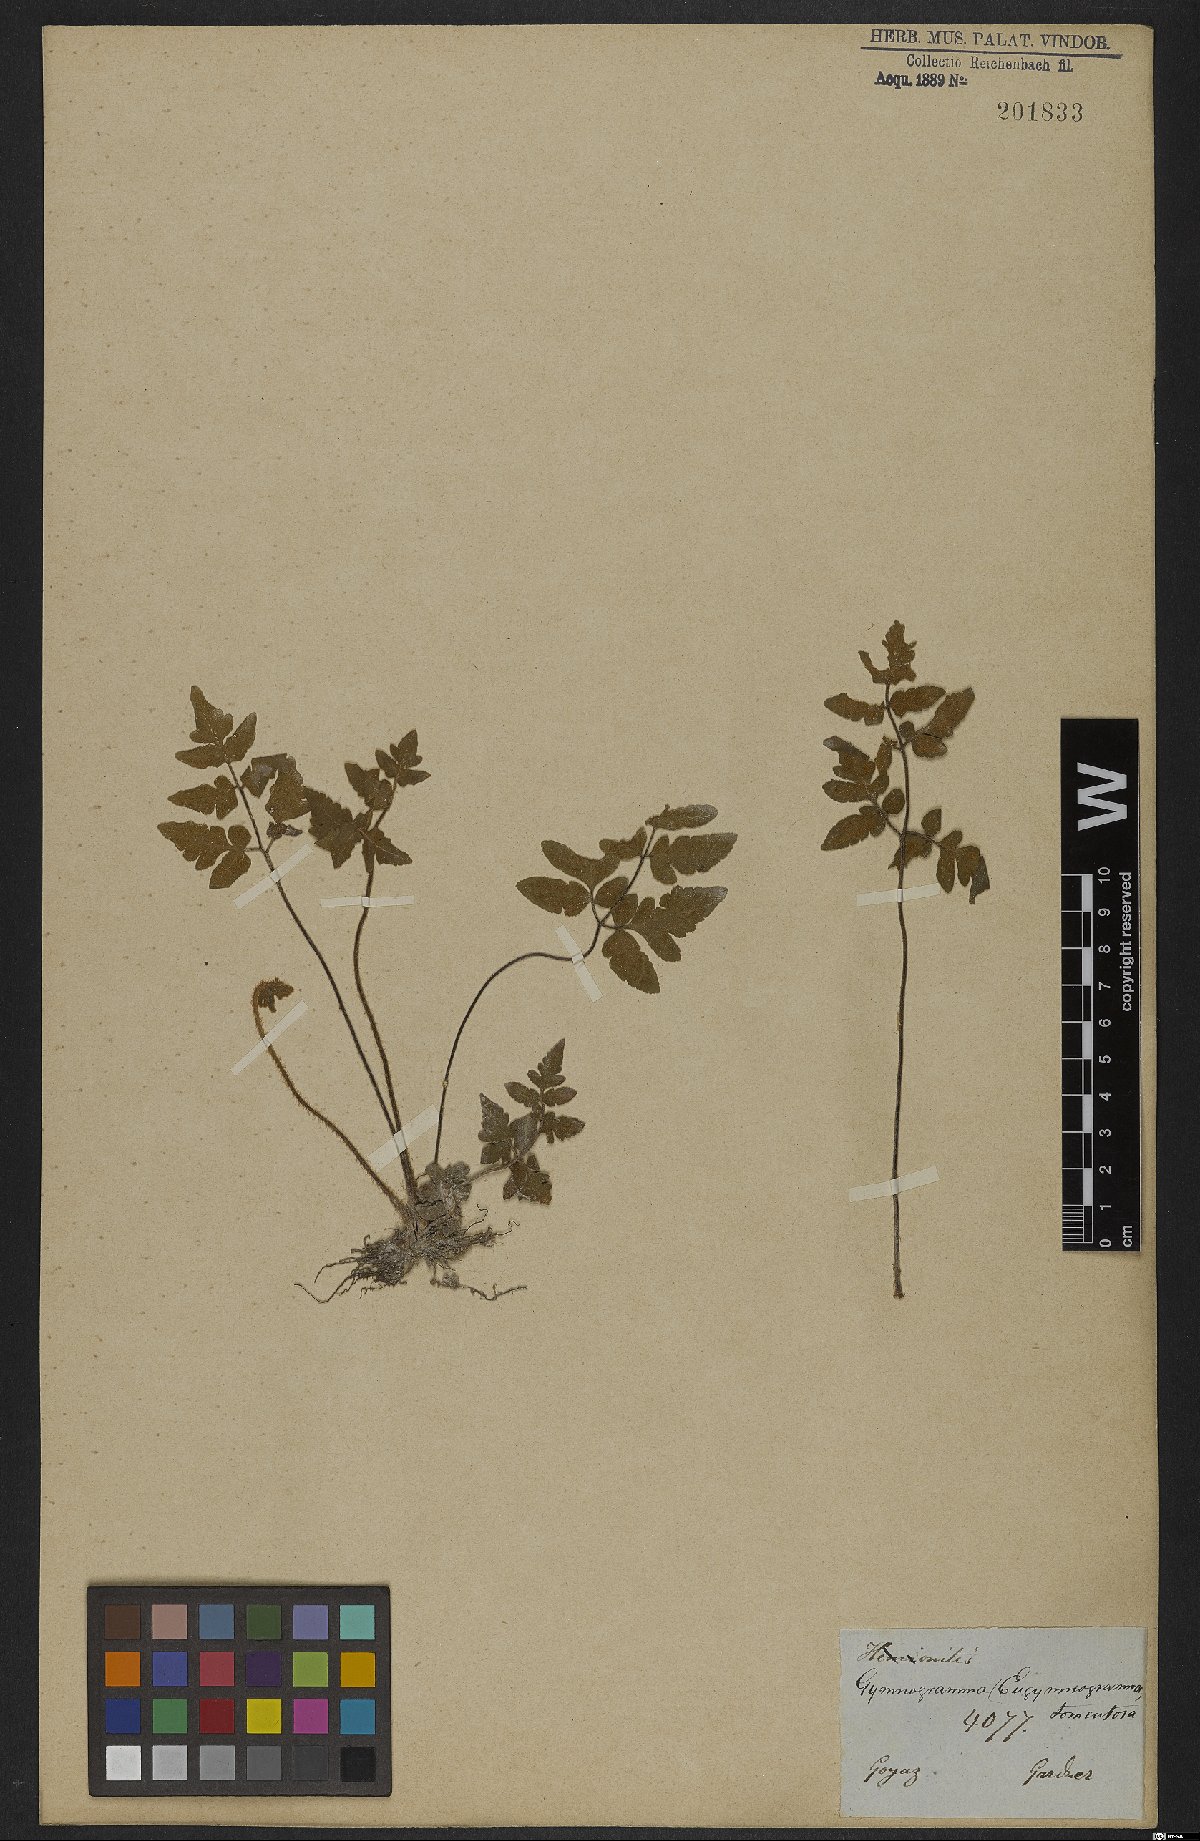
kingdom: Plantae
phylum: Tracheophyta
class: Polypodiopsida
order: Polypodiales
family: Pteridaceae
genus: Hemionitis
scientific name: Hemionitis tomentosa
